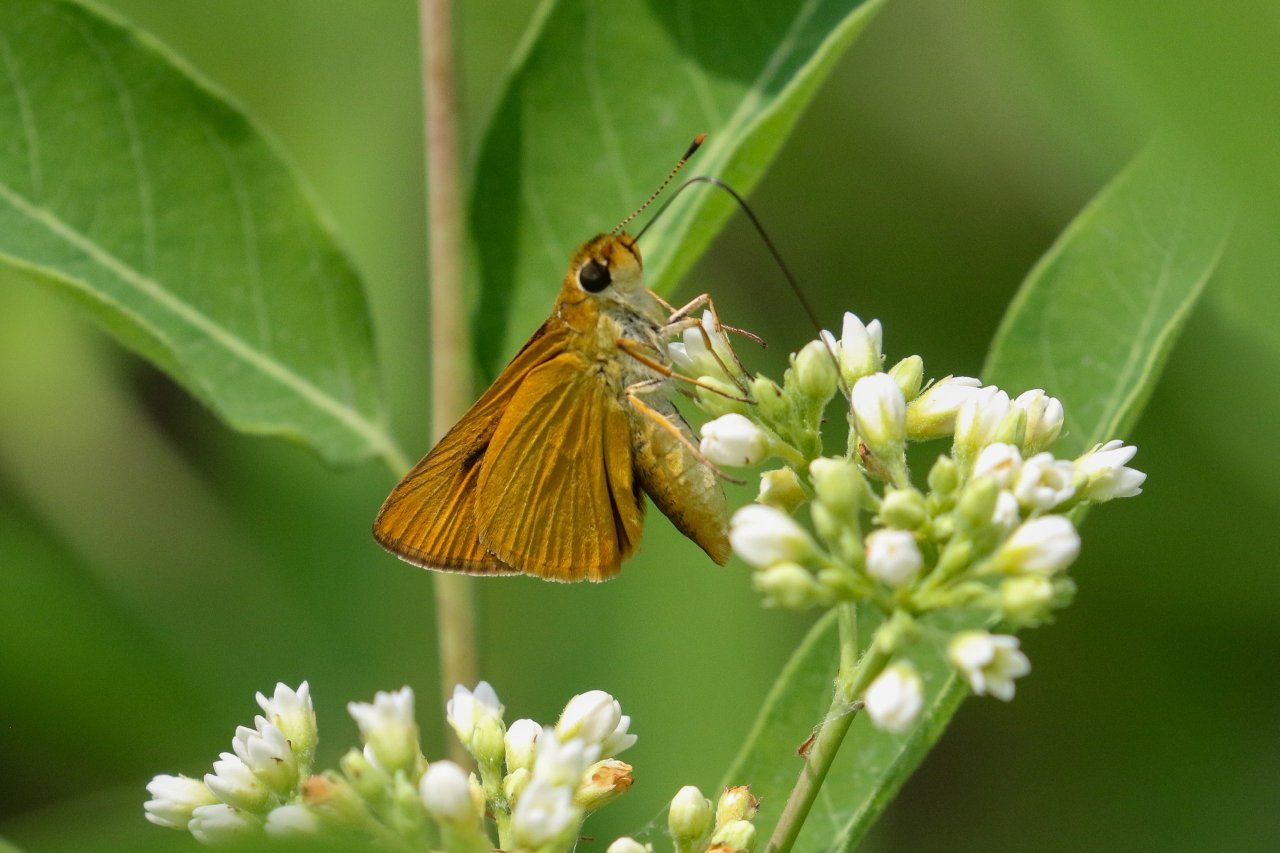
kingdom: Animalia
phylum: Arthropoda
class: Insecta
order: Lepidoptera
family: Hesperiidae
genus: Atrytone
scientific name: Atrytone delaware
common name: Delaware Skipper
